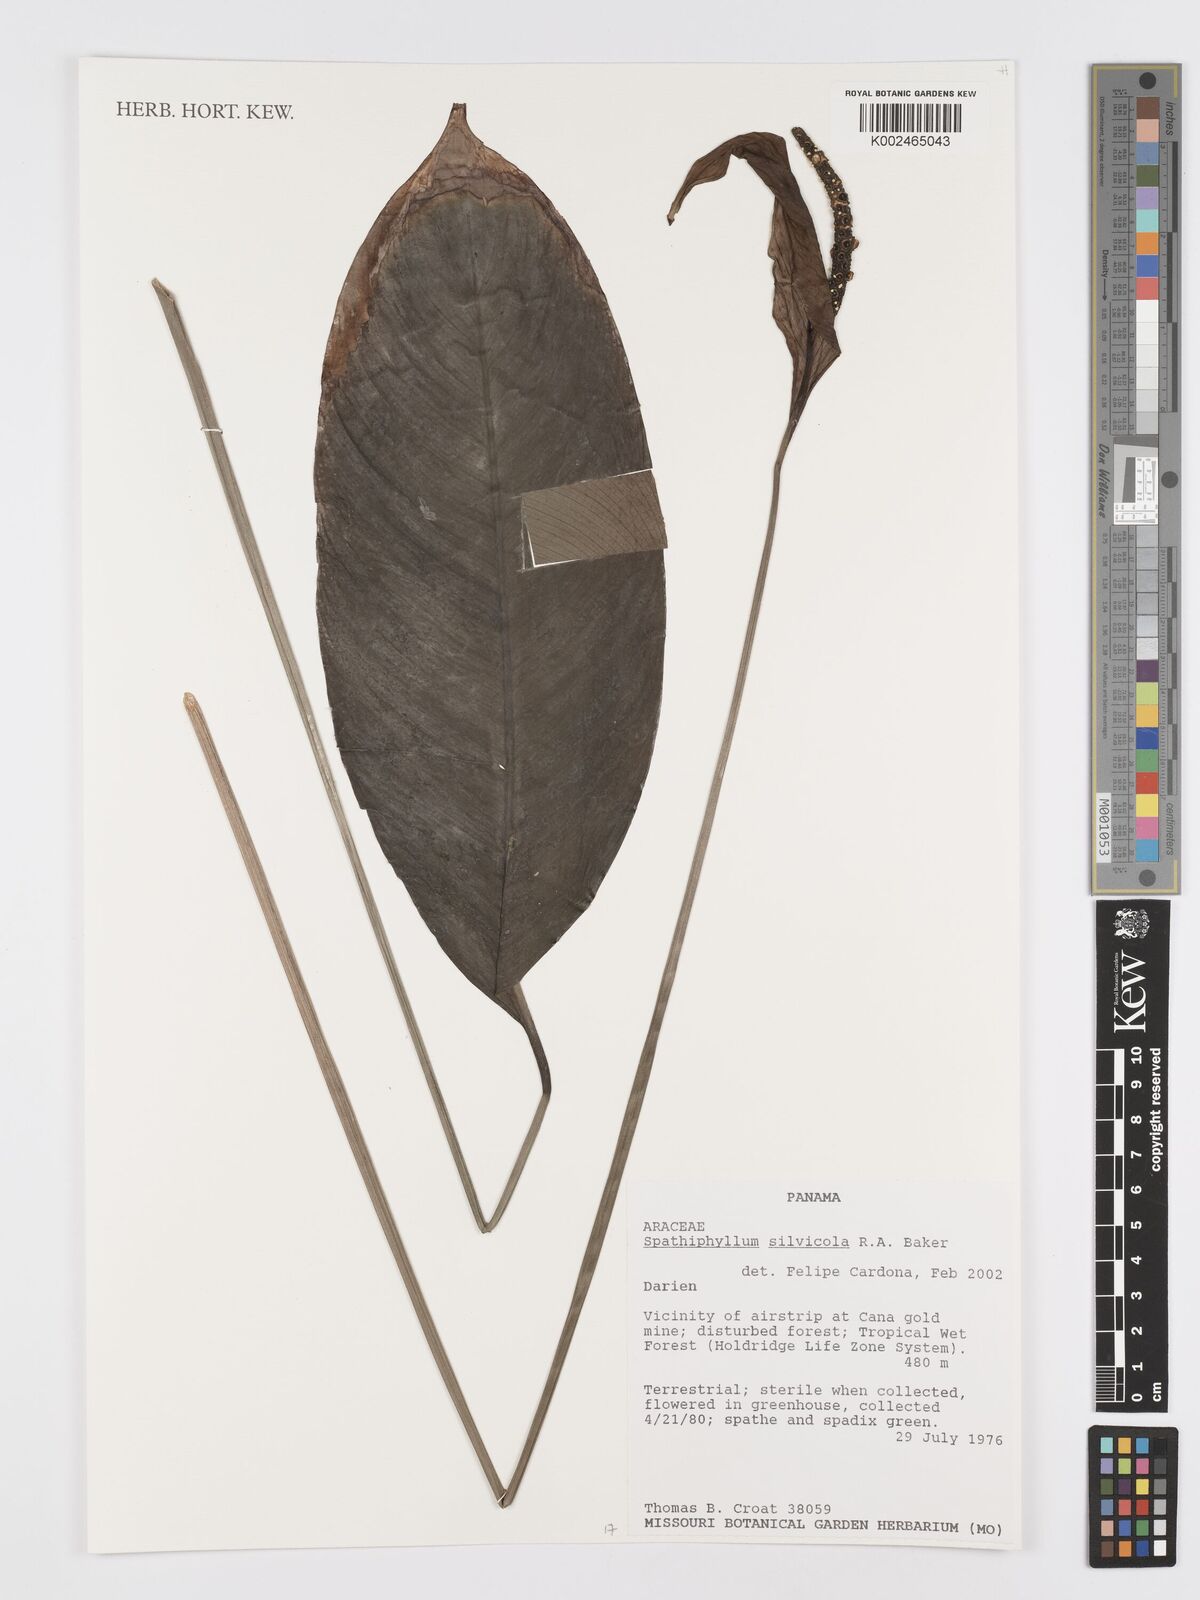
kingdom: Plantae
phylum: Tracheophyta
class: Liliopsida
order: Alismatales
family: Araceae
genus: Spathiphyllum
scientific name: Spathiphyllum silvicola
